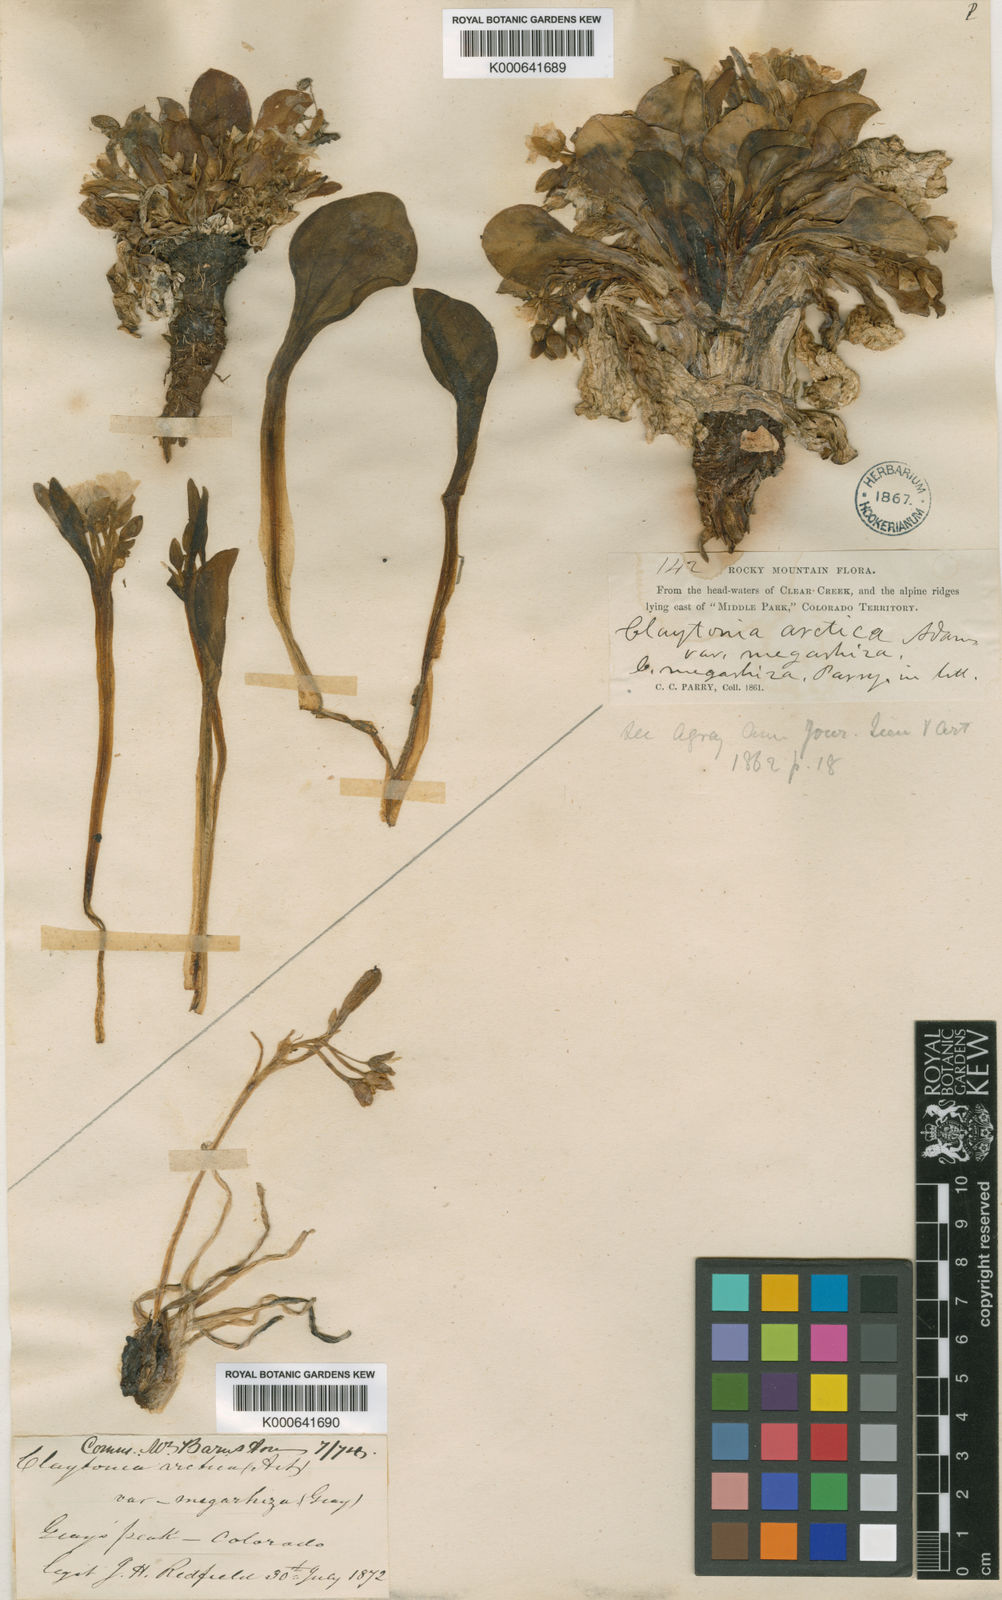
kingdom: Plantae
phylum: Tracheophyta
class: Magnoliopsida
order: Caryophyllales
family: Montiaceae
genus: Claytonia
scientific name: Claytonia megarhiza
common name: Alpine spring beauty
